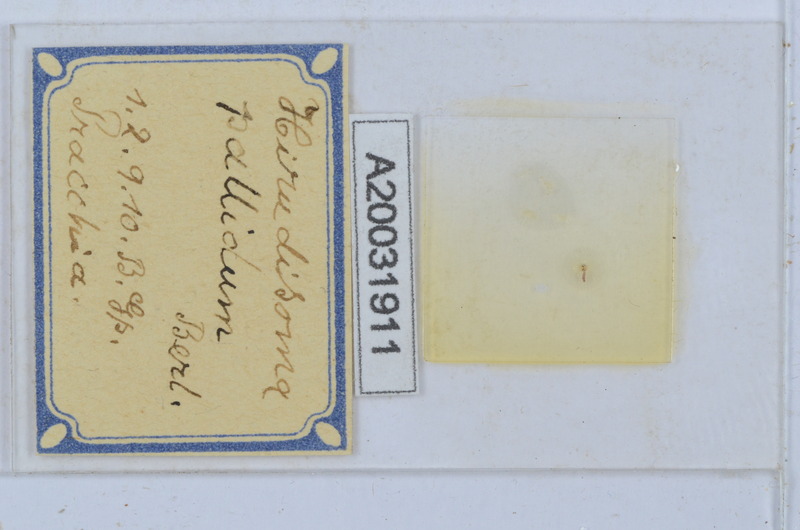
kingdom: Animalia
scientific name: Animalia
